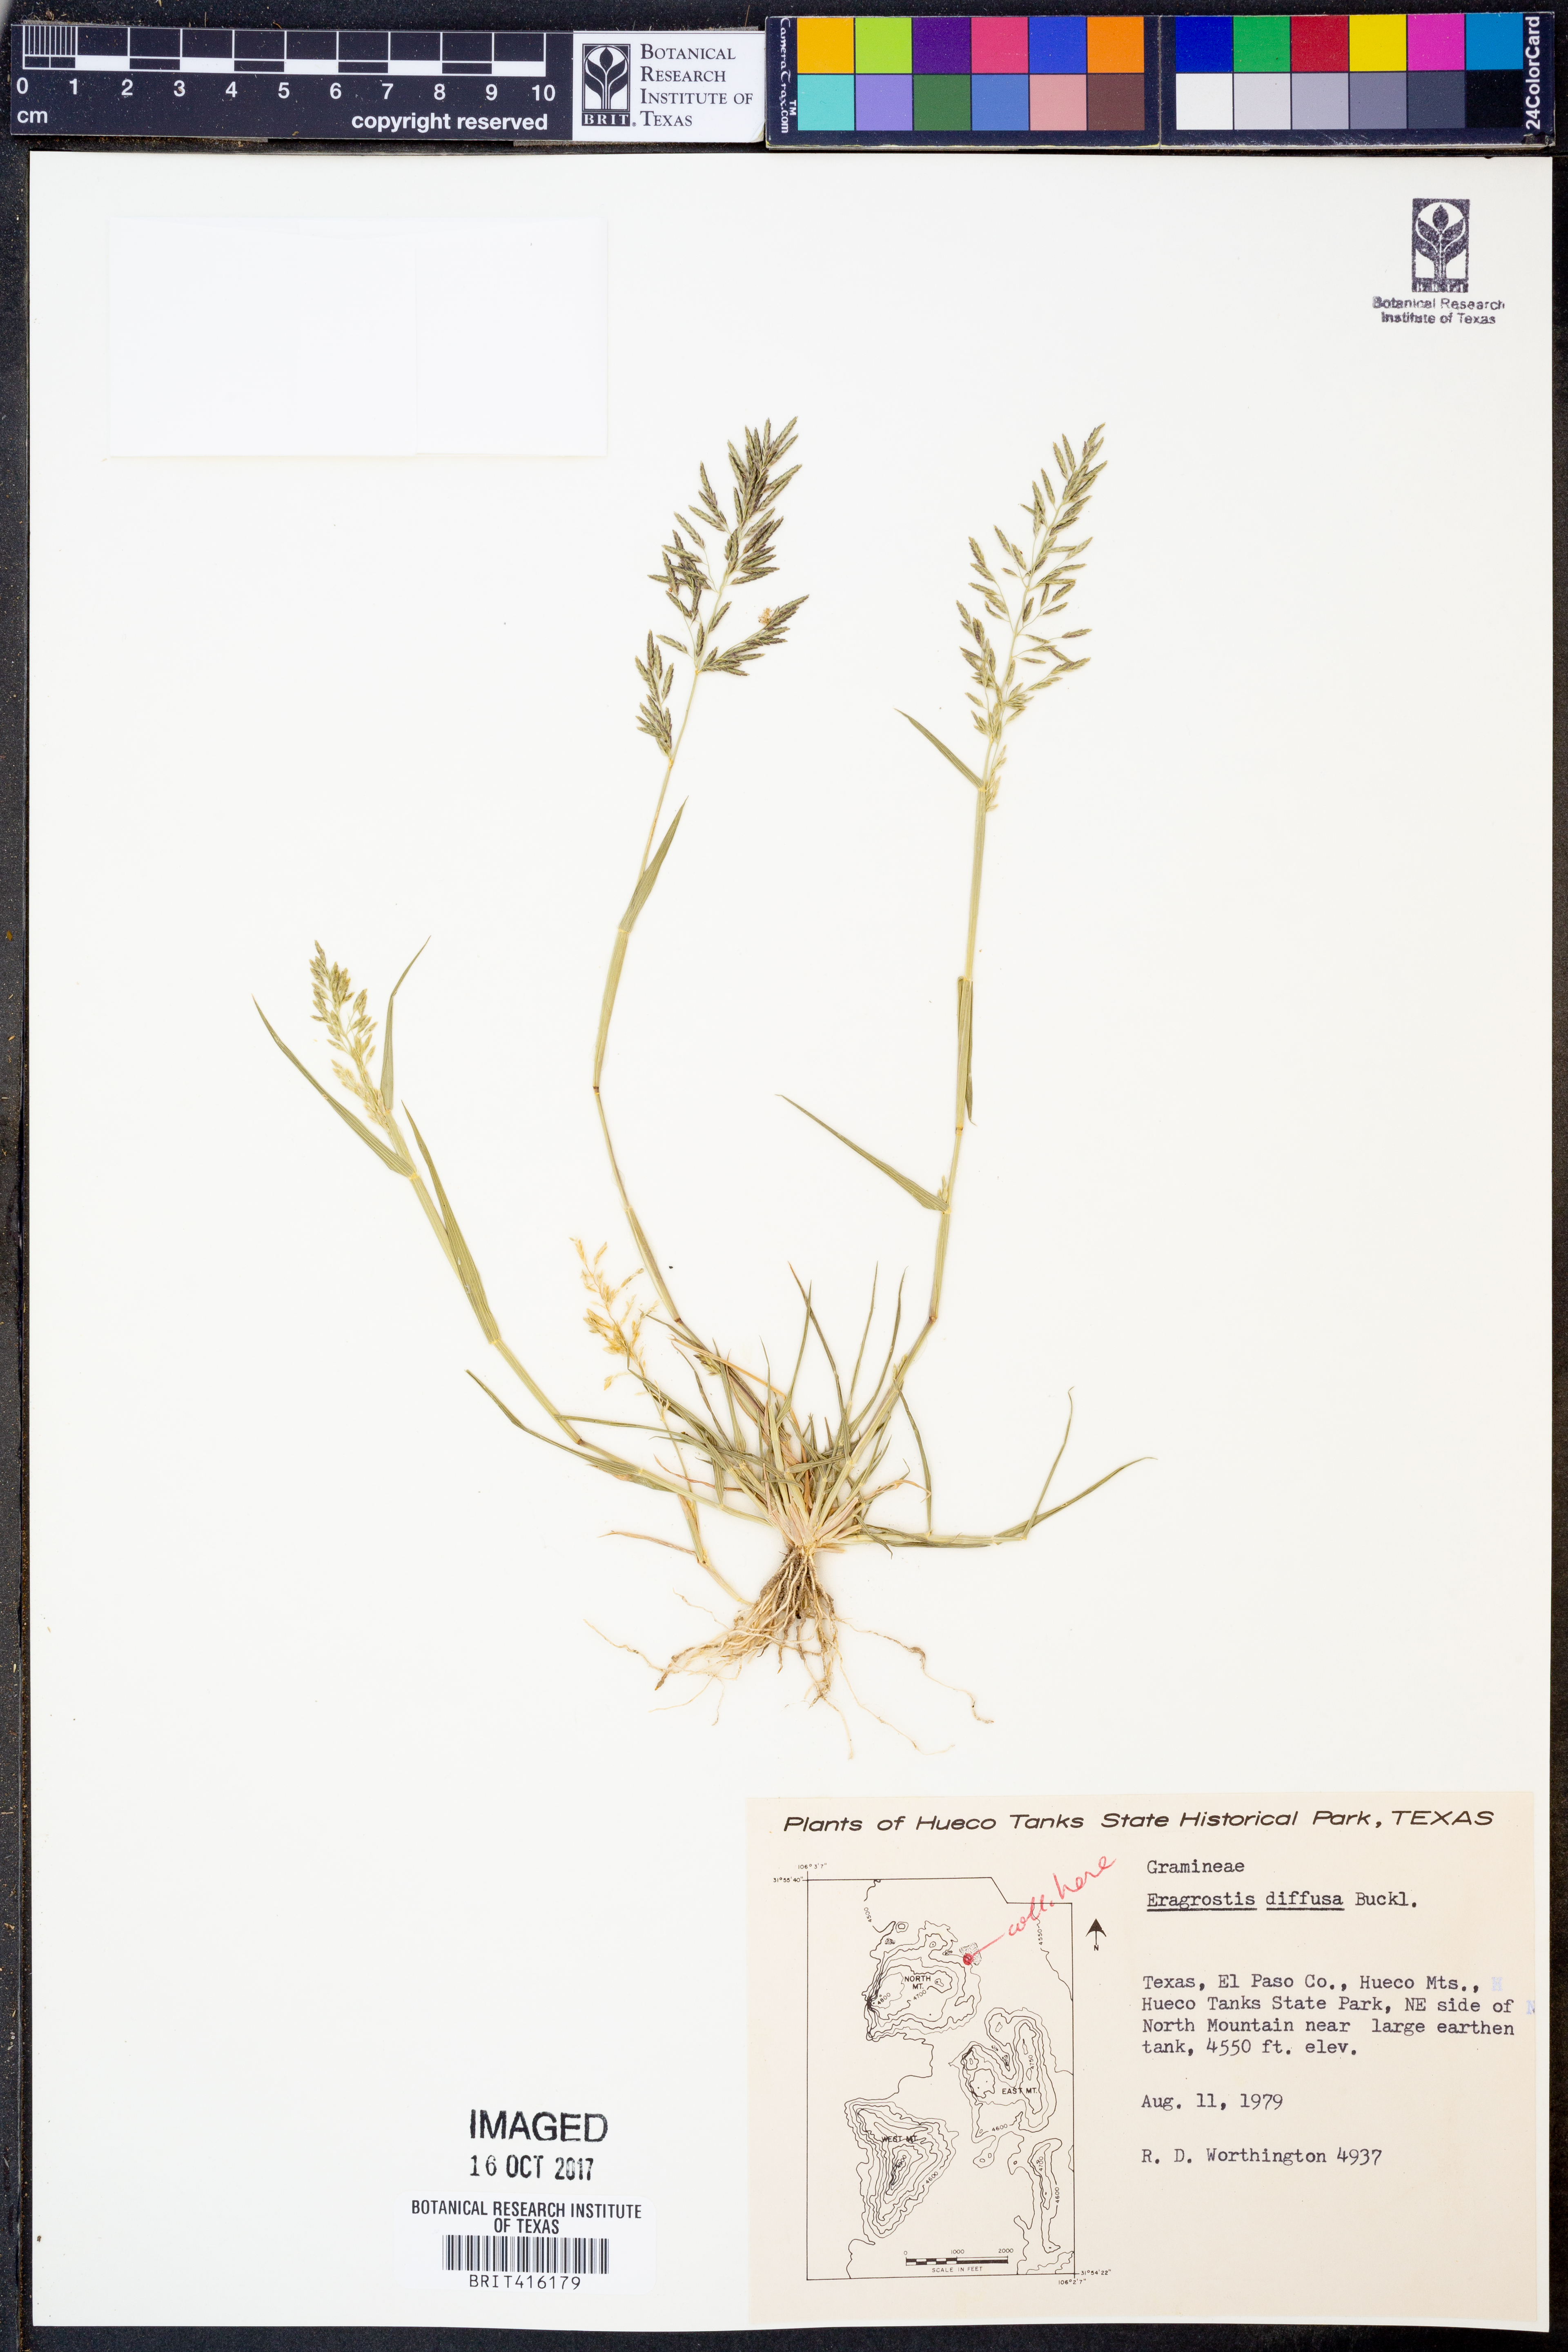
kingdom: Plantae
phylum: Tracheophyta
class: Liliopsida
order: Poales
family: Poaceae
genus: Eragrostis
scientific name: Eragrostis pectinacea
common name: Tufted lovegrass
